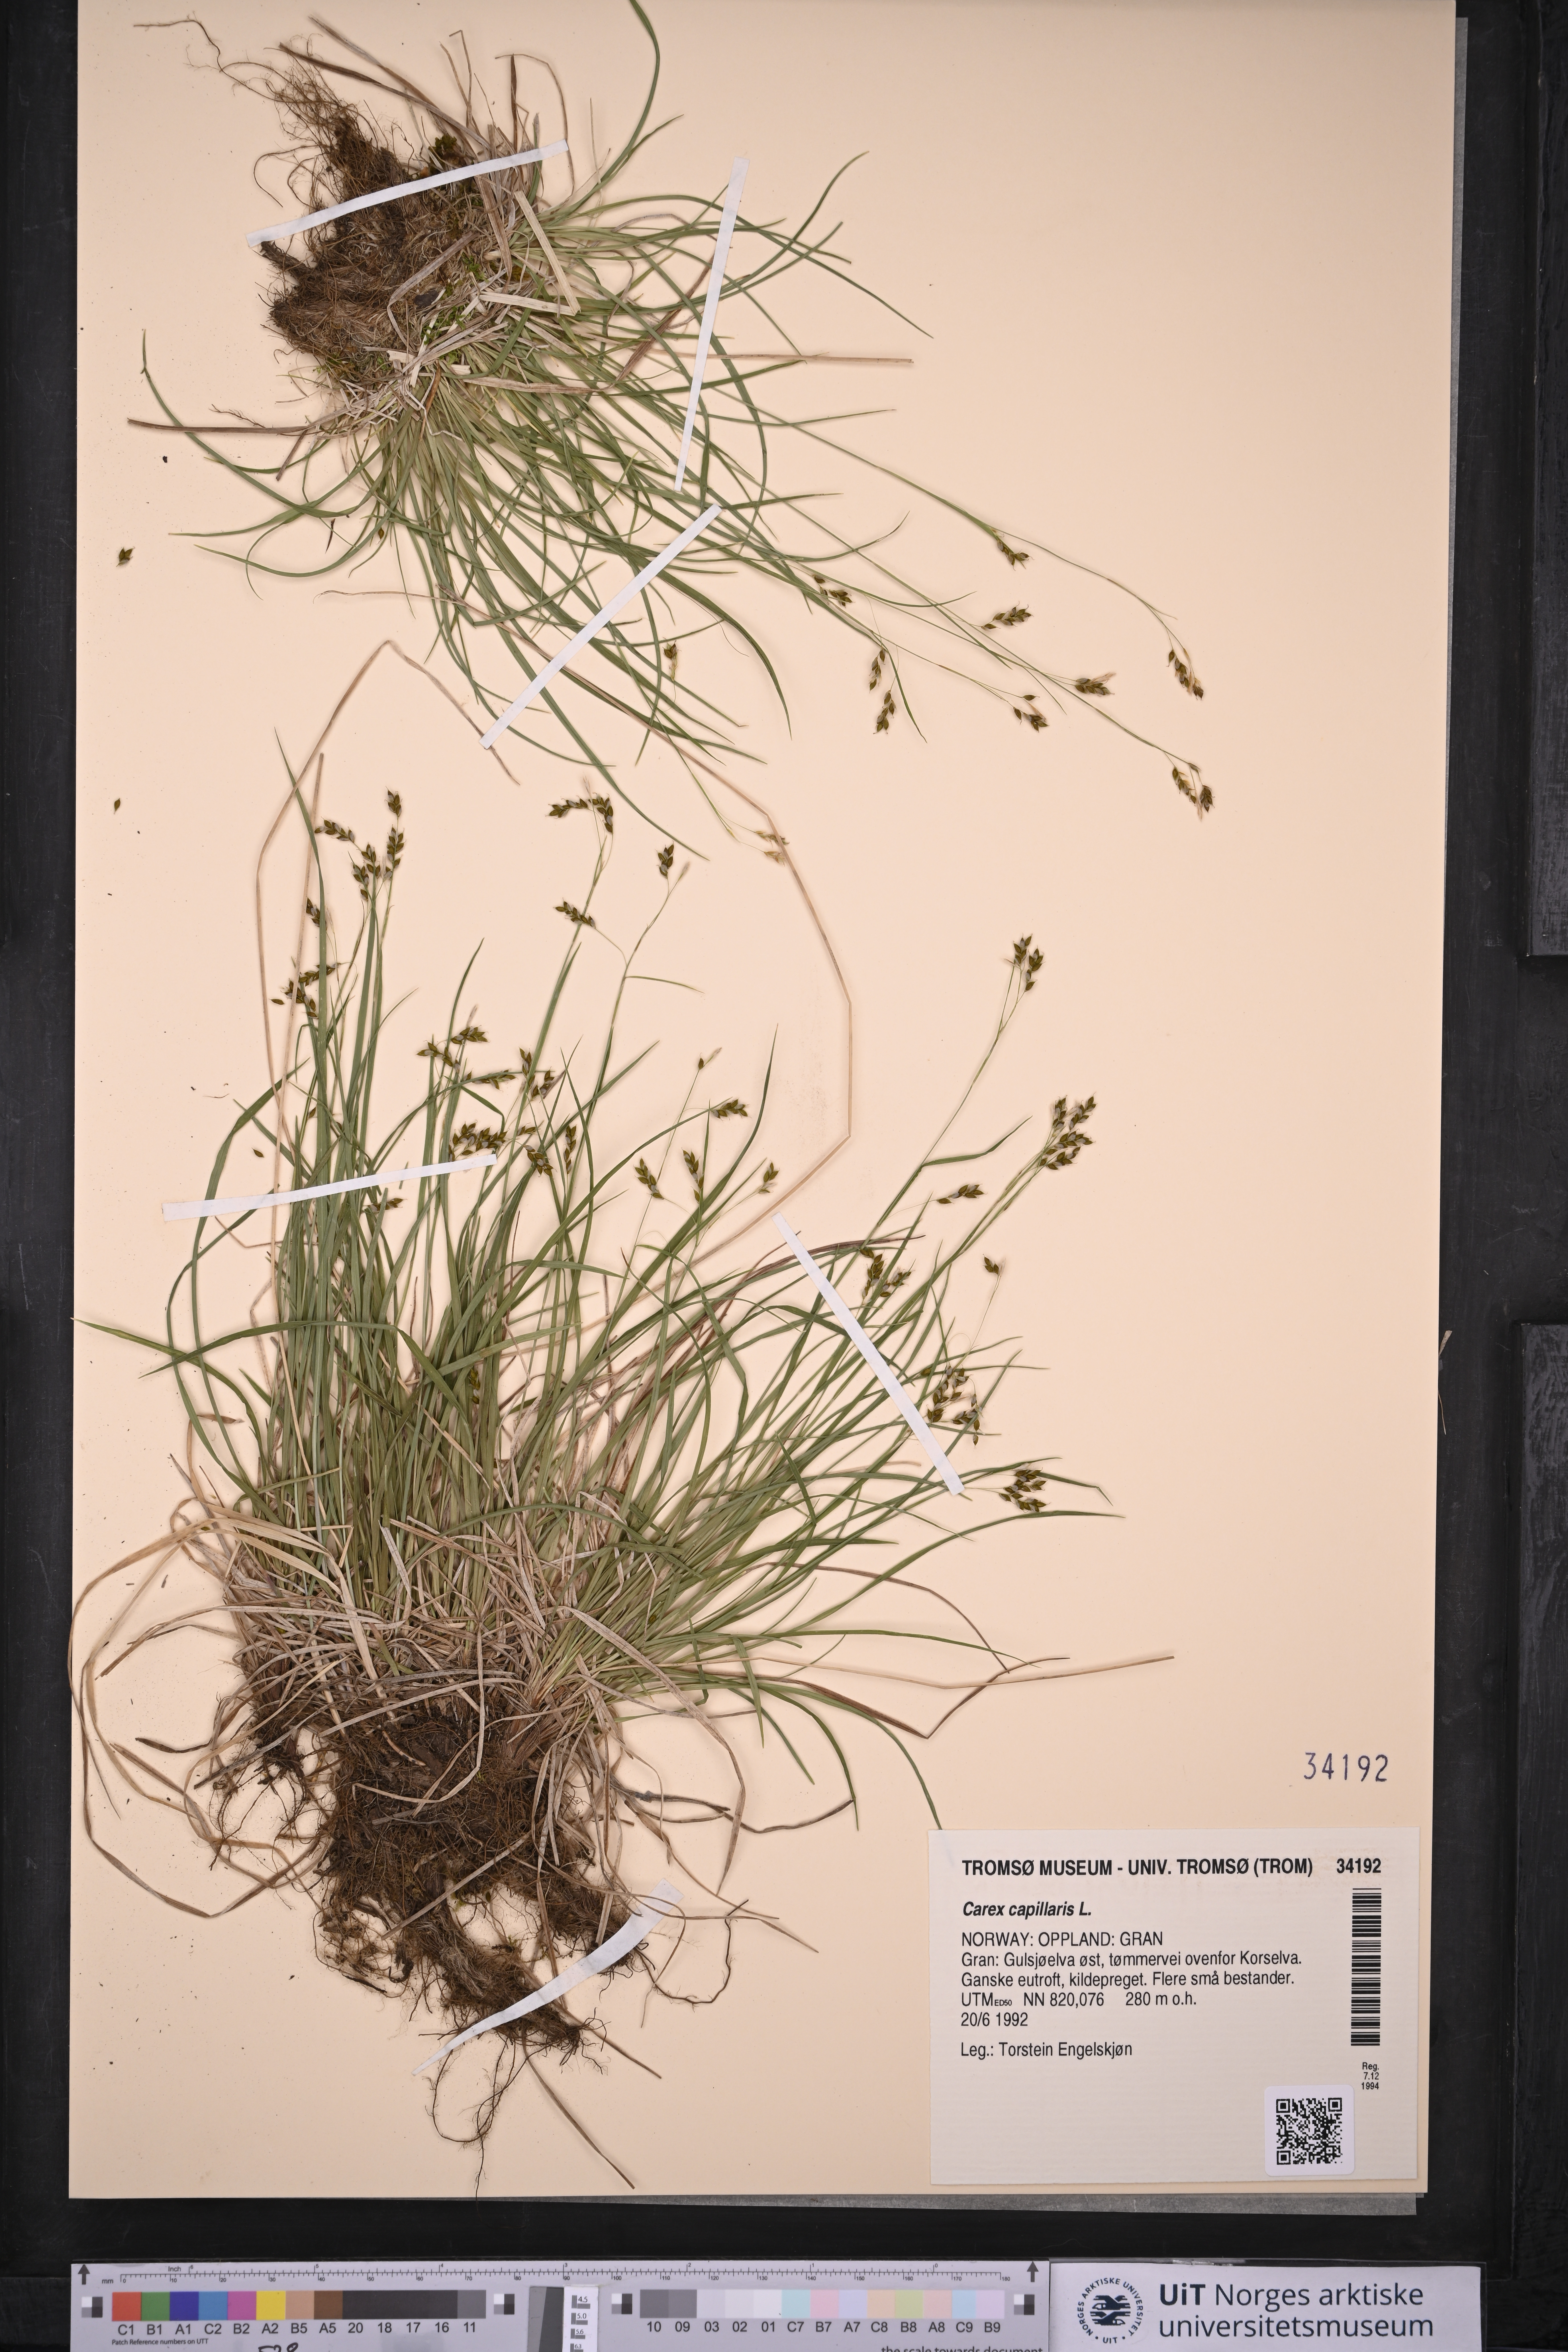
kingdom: Plantae
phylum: Tracheophyta
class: Liliopsida
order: Poales
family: Cyperaceae
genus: Carex
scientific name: Carex capillaris
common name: Hair sedge
